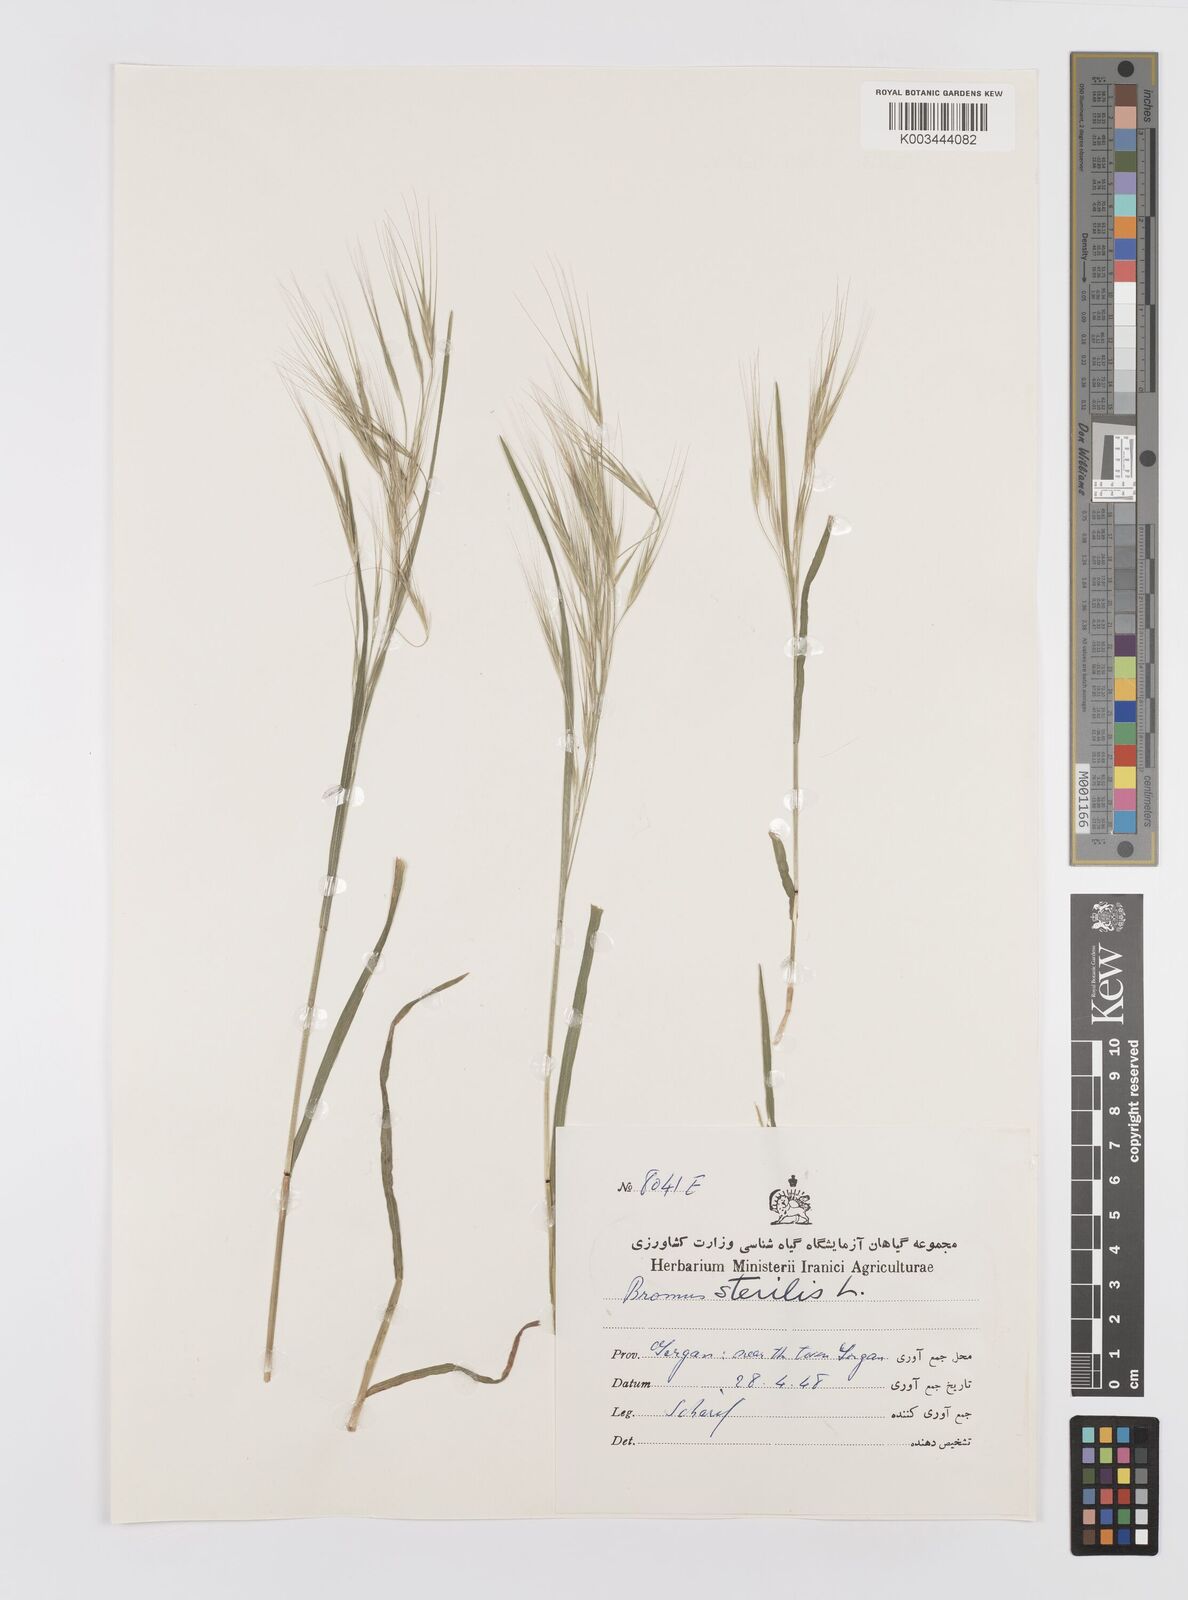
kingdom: Plantae
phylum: Tracheophyta
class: Liliopsida
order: Poales
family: Poaceae
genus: Bromus
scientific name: Bromus sterilis
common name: Poverty brome
